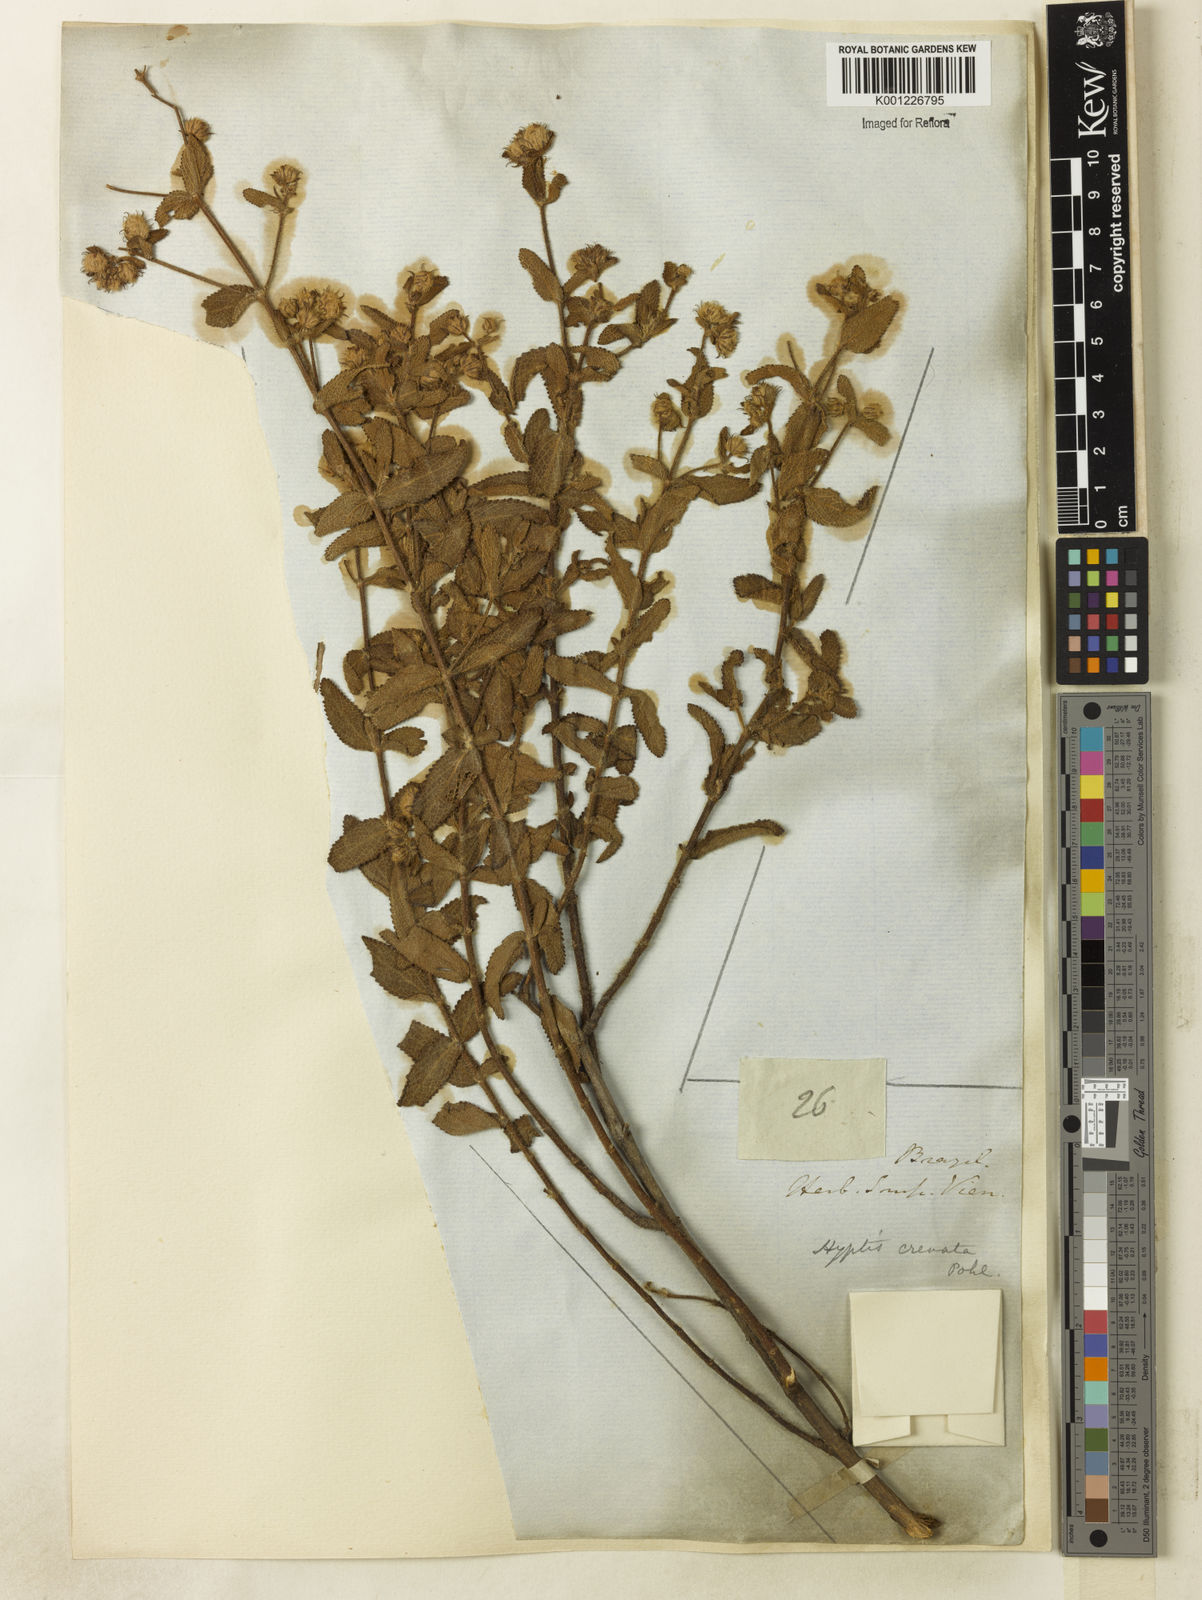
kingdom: Plantae
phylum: Tracheophyta
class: Magnoliopsida
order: Lamiales
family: Lamiaceae
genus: Hyptis
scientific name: Hyptis crenata
